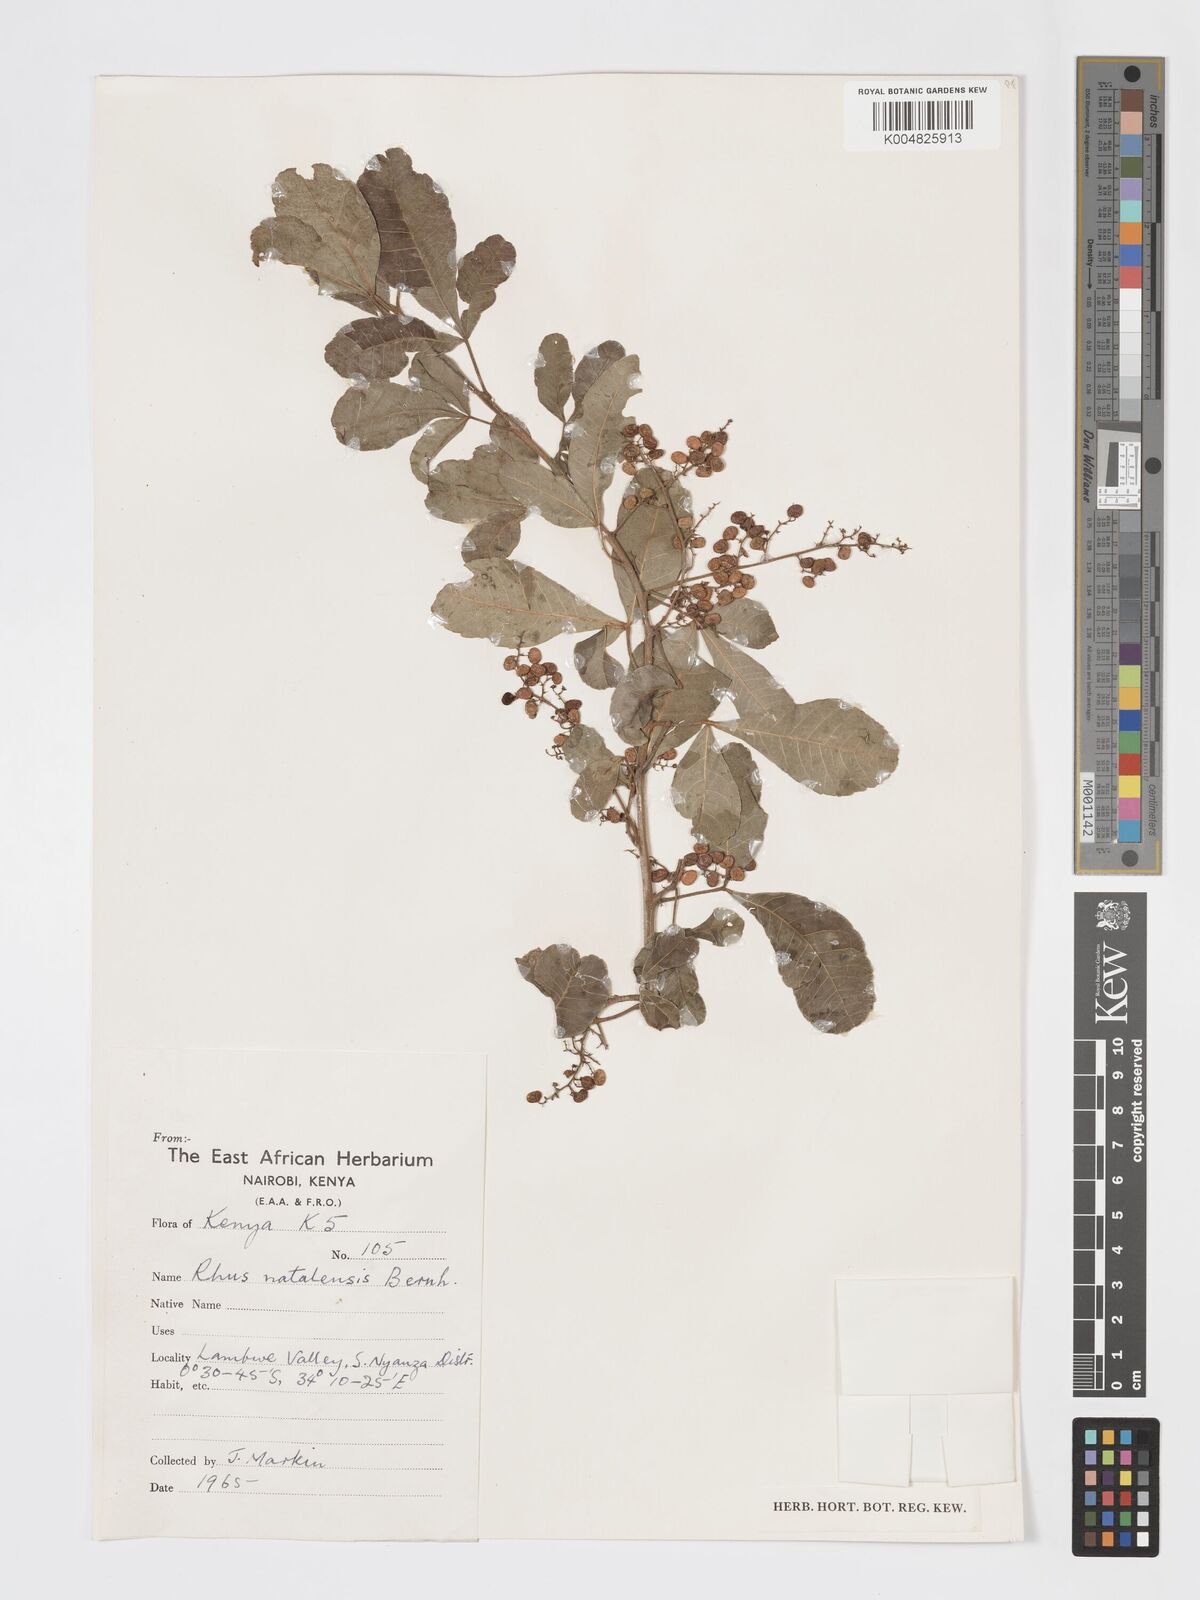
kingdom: Plantae
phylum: Tracheophyta
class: Magnoliopsida
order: Sapindales
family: Anacardiaceae
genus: Searsia
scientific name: Searsia natalensis
